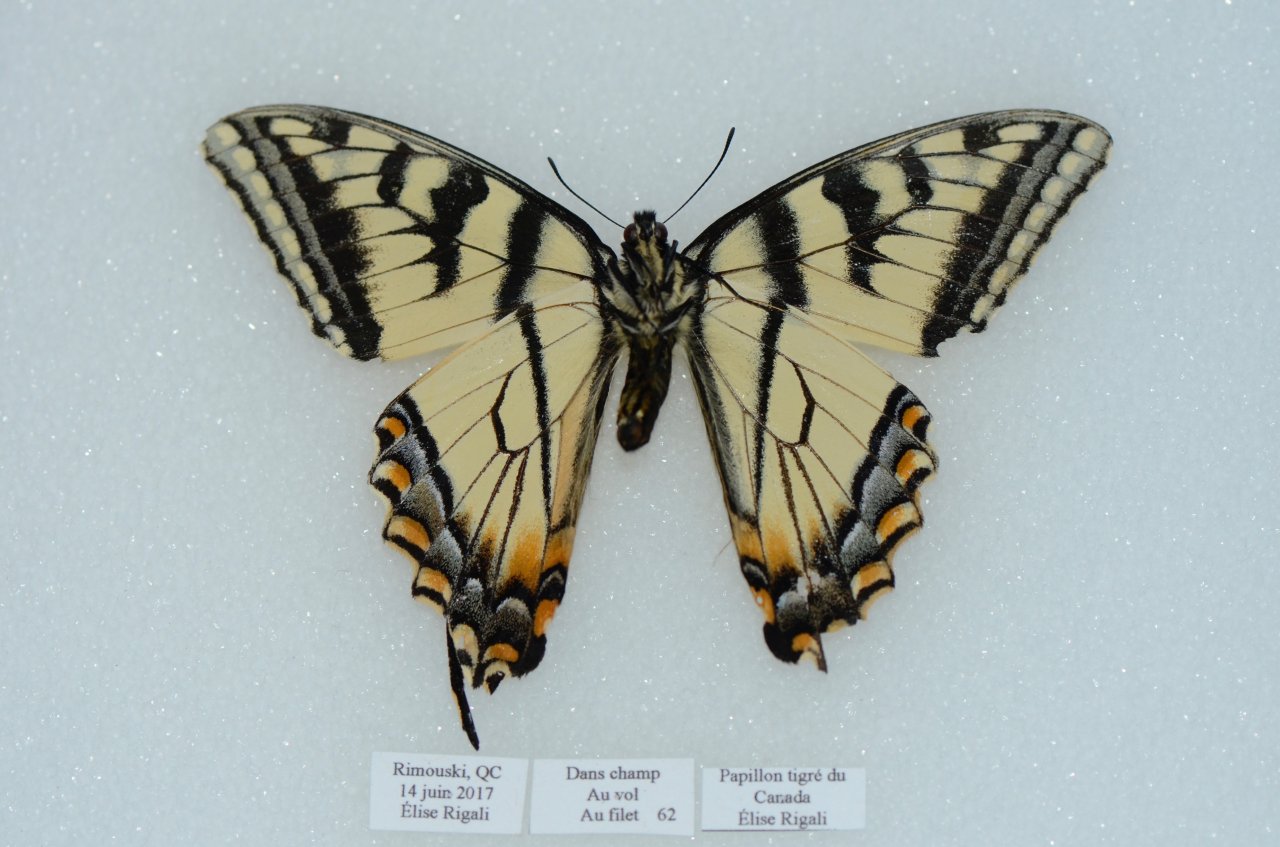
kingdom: Animalia
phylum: Arthropoda
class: Insecta
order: Lepidoptera
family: Papilionidae
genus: Pterourus
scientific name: Pterourus canadensis
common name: Canadian Tiger Swallowtail
